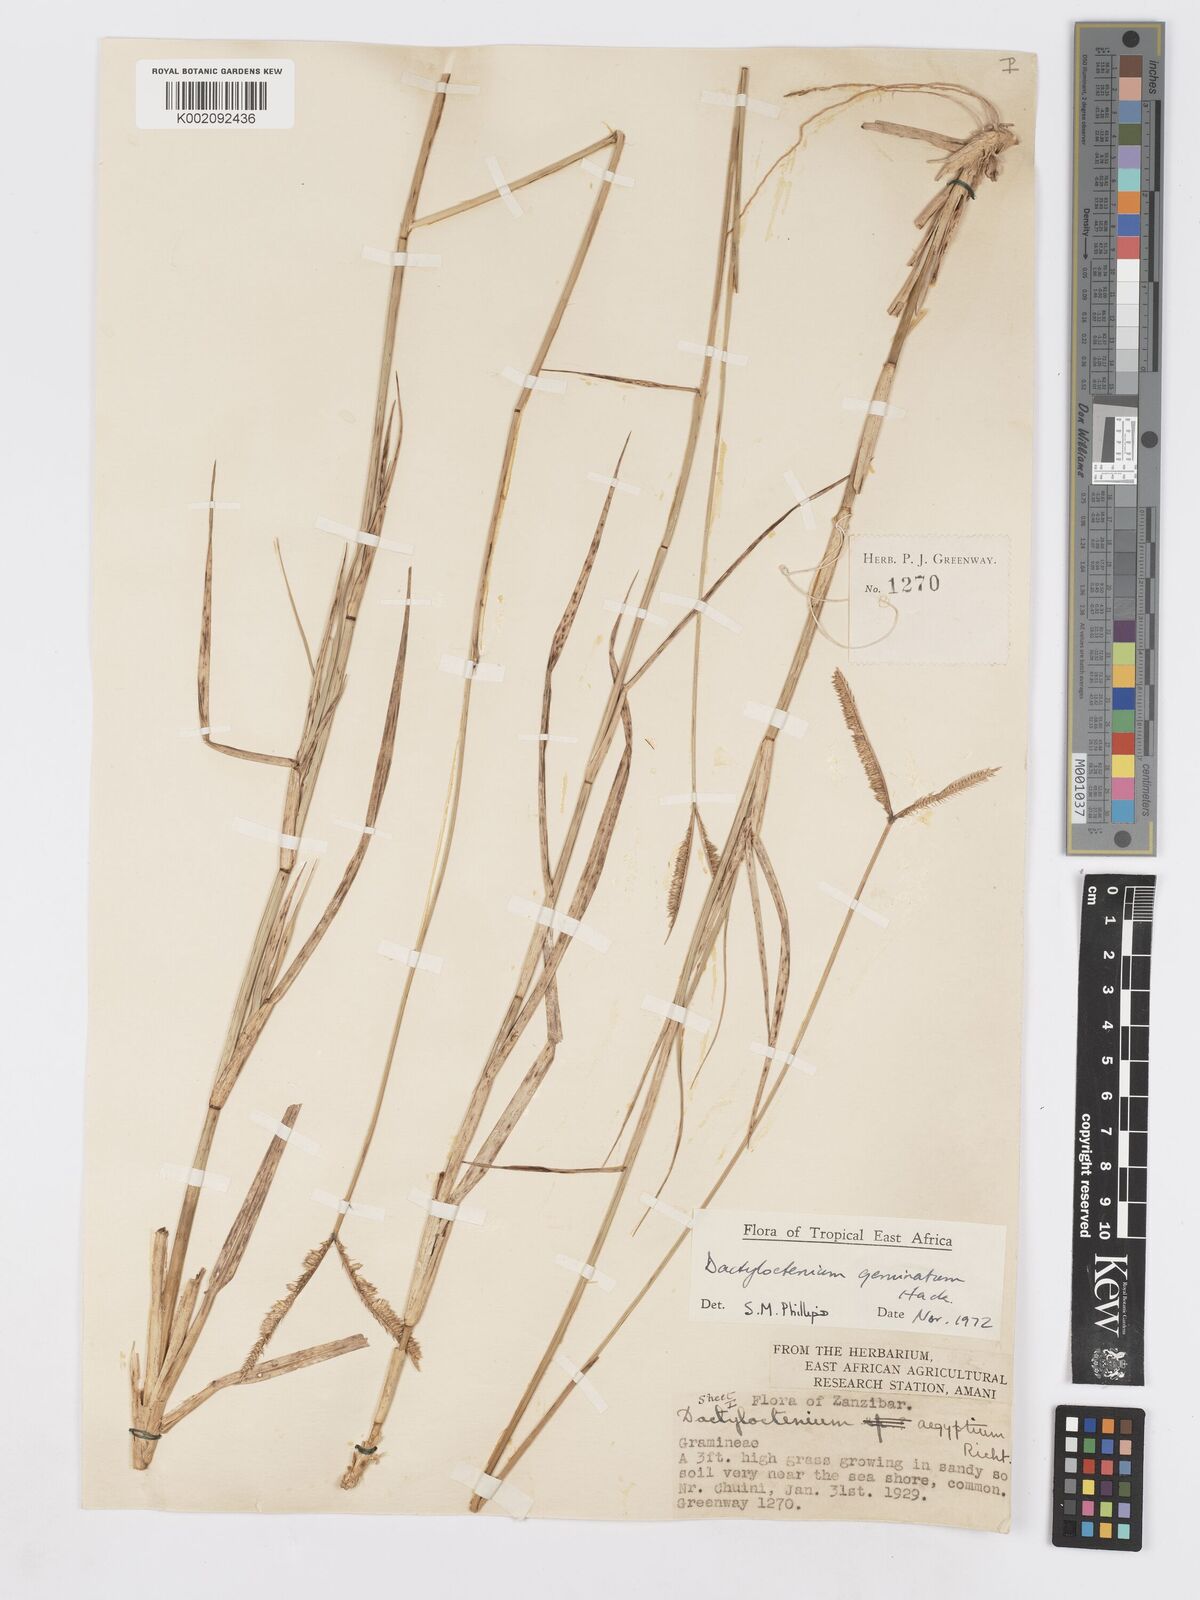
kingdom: Plantae
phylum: Tracheophyta
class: Liliopsida
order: Poales
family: Poaceae
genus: Dactyloctenium
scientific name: Dactyloctenium geminatum
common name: Crowsfoot grass
